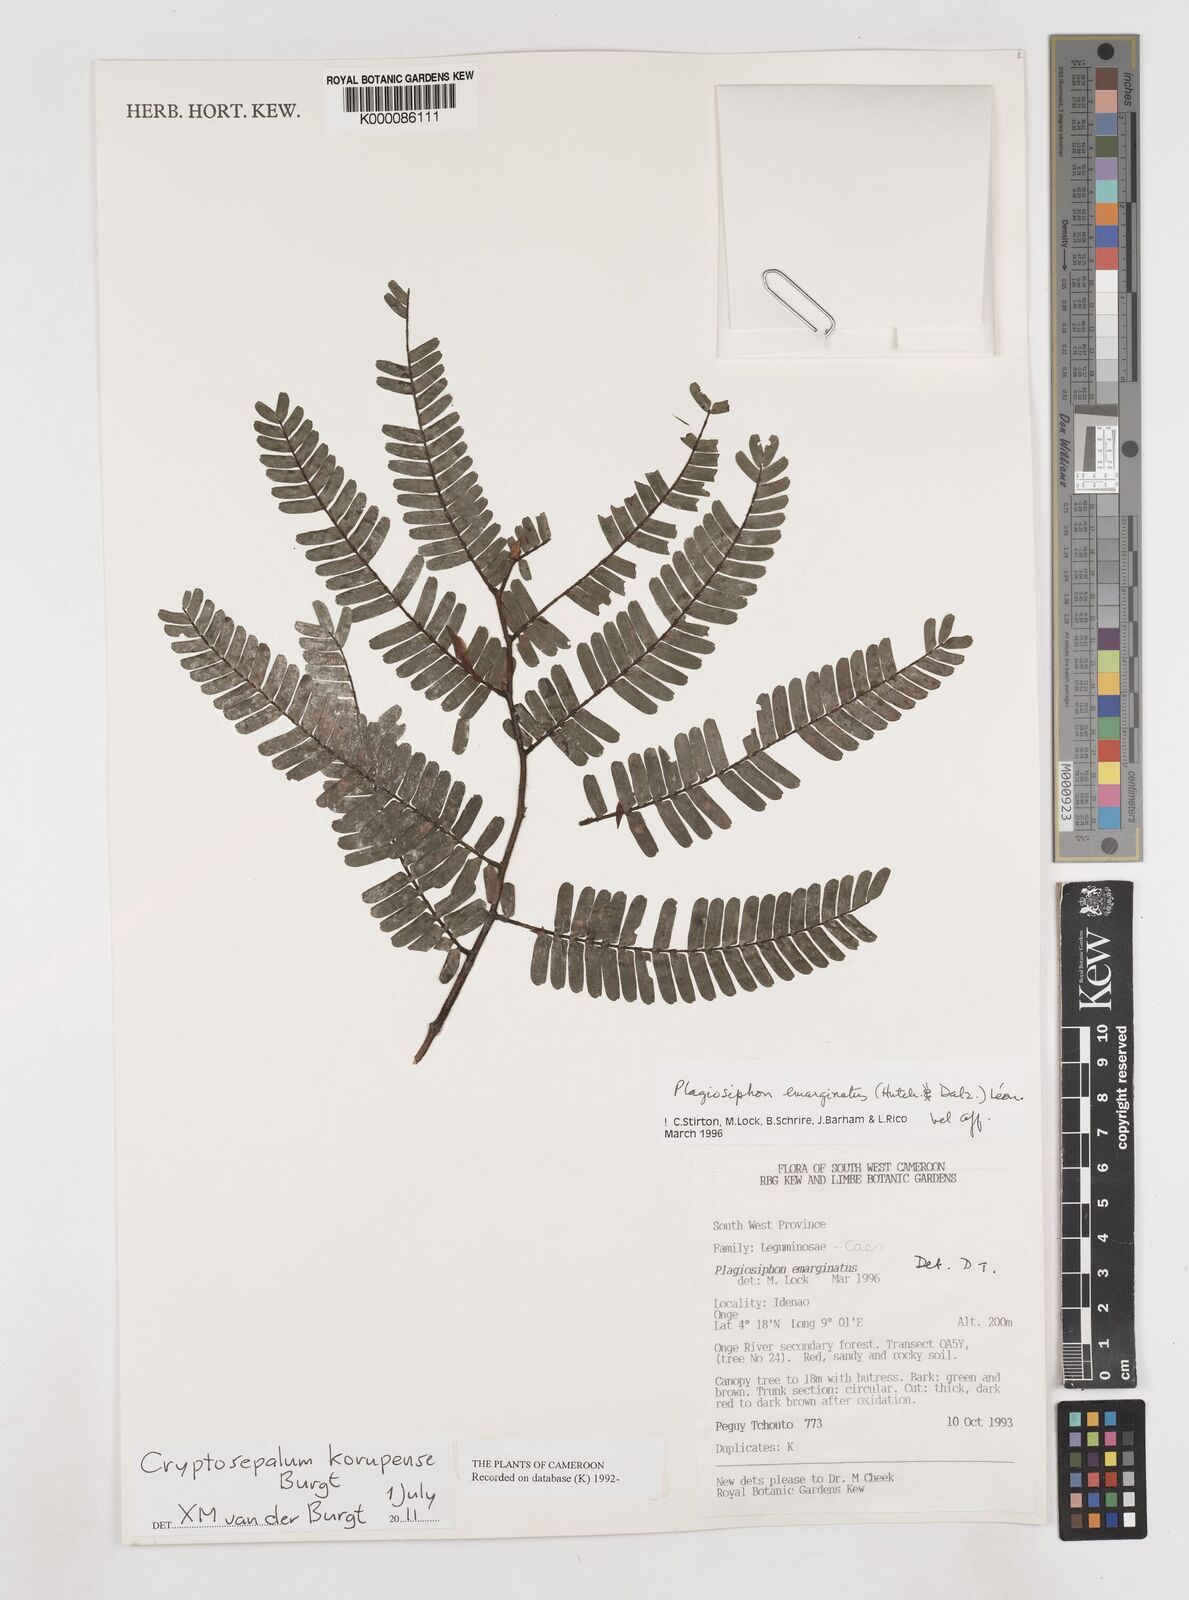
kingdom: Plantae
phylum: Tracheophyta
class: Magnoliopsida
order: Fabales
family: Fabaceae
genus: Cryptosepalum
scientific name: Cryptosepalum korupense
